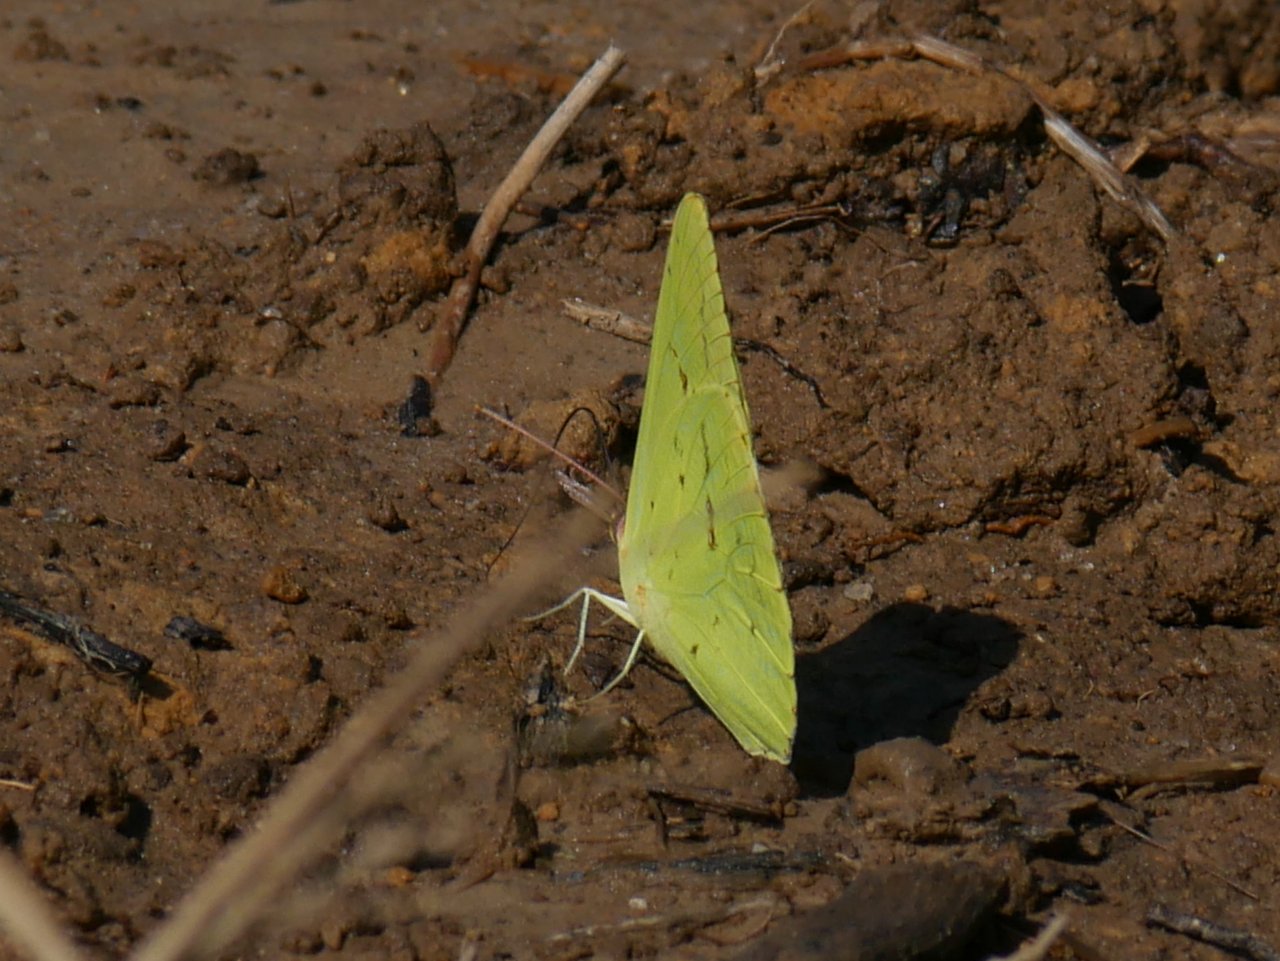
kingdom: Animalia
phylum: Arthropoda
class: Insecta
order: Lepidoptera
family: Pieridae
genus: Phoebis
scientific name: Phoebis sennae
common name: Cloudless Sulphur
